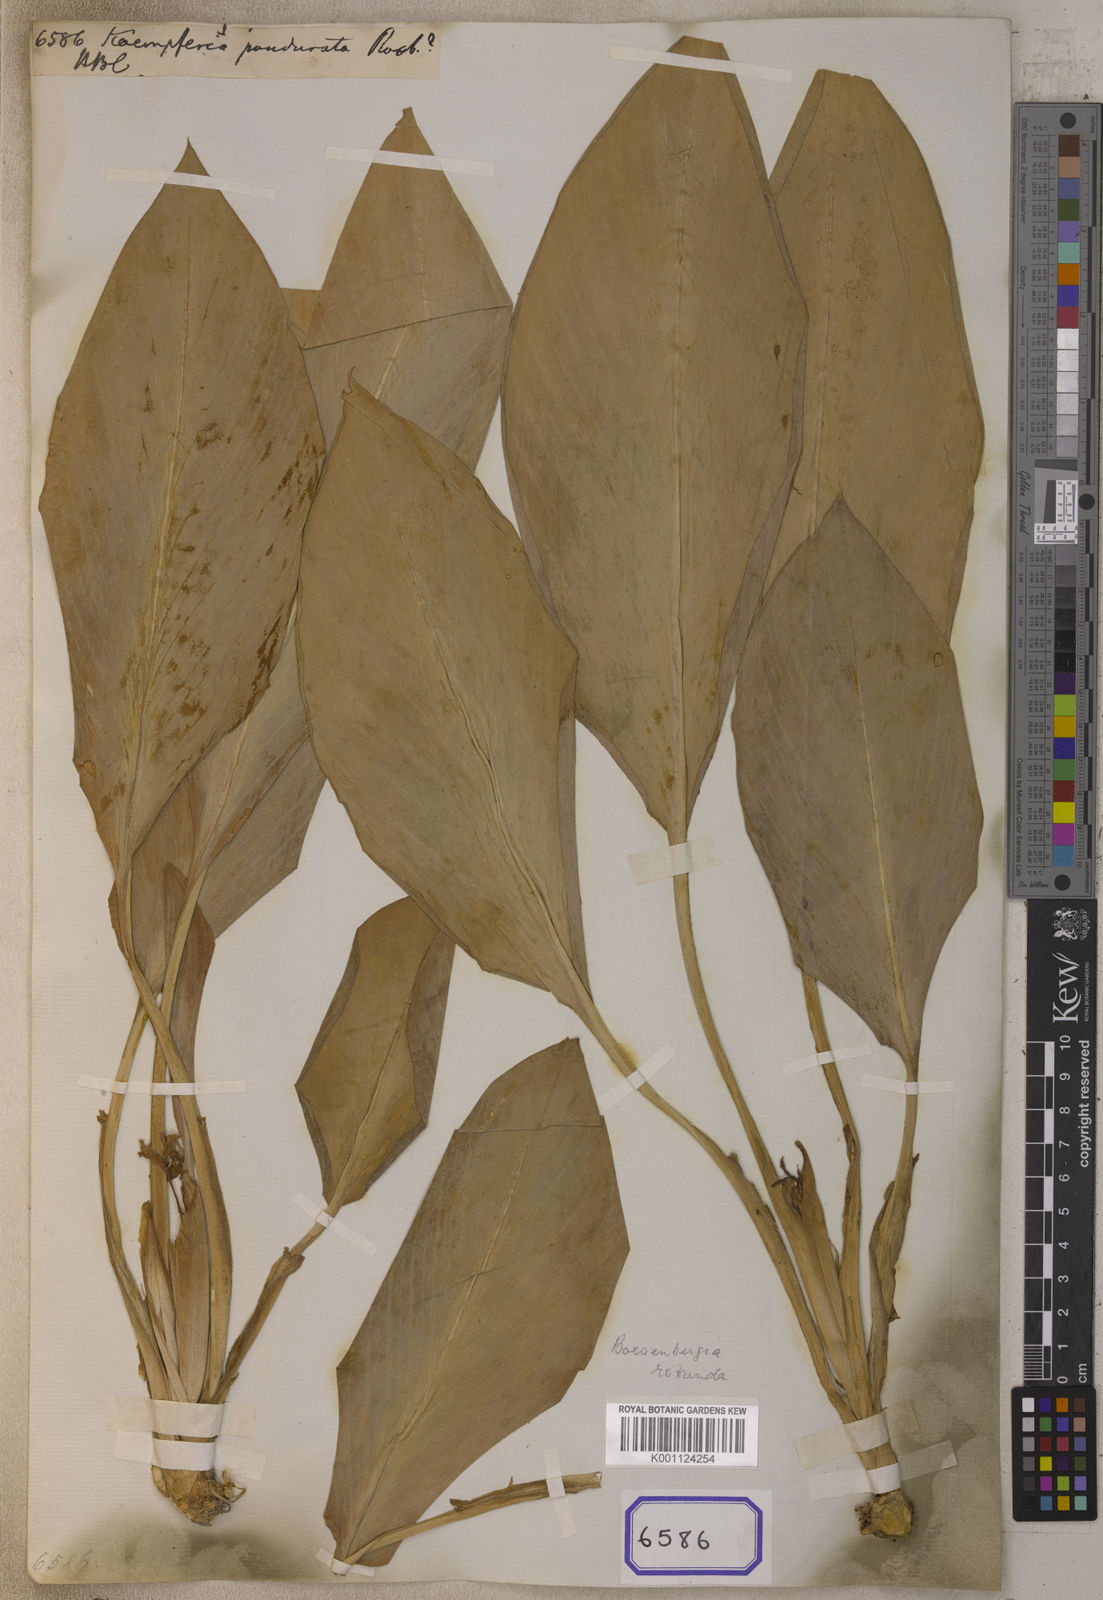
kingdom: Plantae
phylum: Tracheophyta
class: Liliopsida
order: Zingiberales
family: Zingiberaceae
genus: Boesenbergia
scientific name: Boesenbergia rotunda
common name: Chinese ginger
